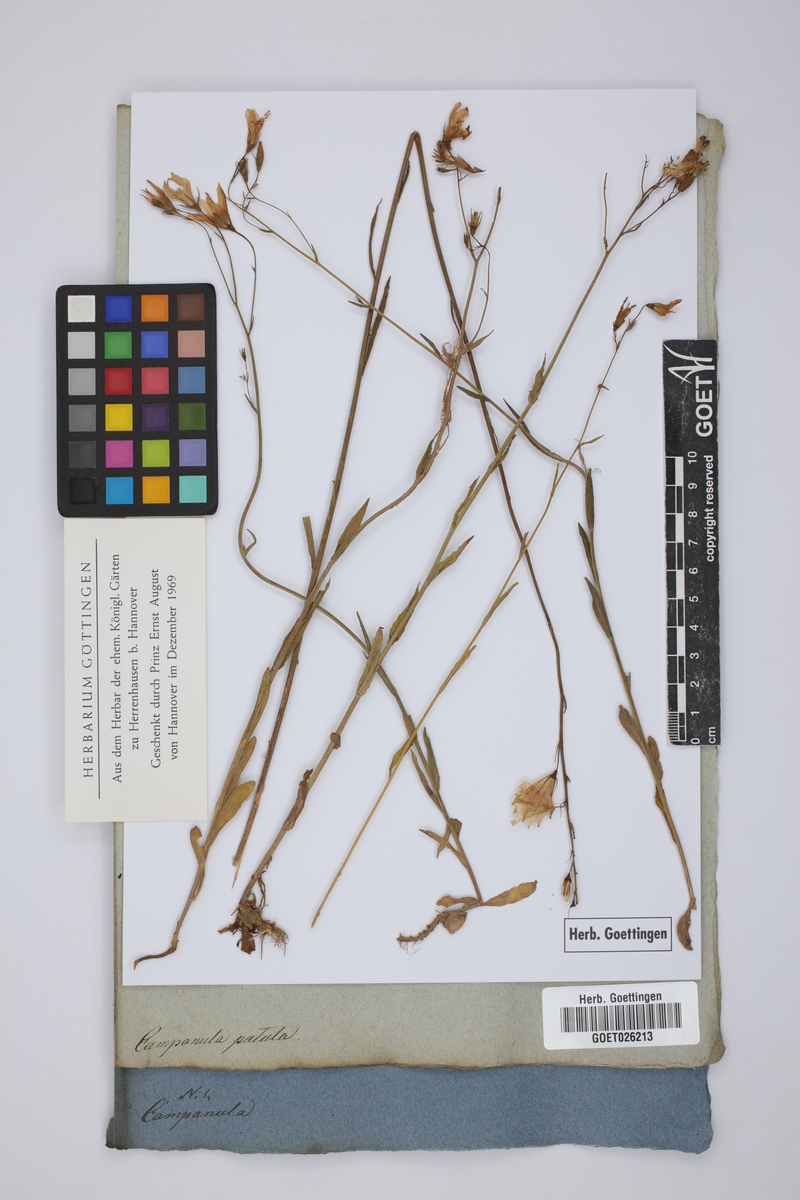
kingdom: Plantae
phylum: Tracheophyta
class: Magnoliopsida
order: Asterales
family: Campanulaceae
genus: Campanula
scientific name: Campanula patula
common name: Spreading bellflower
